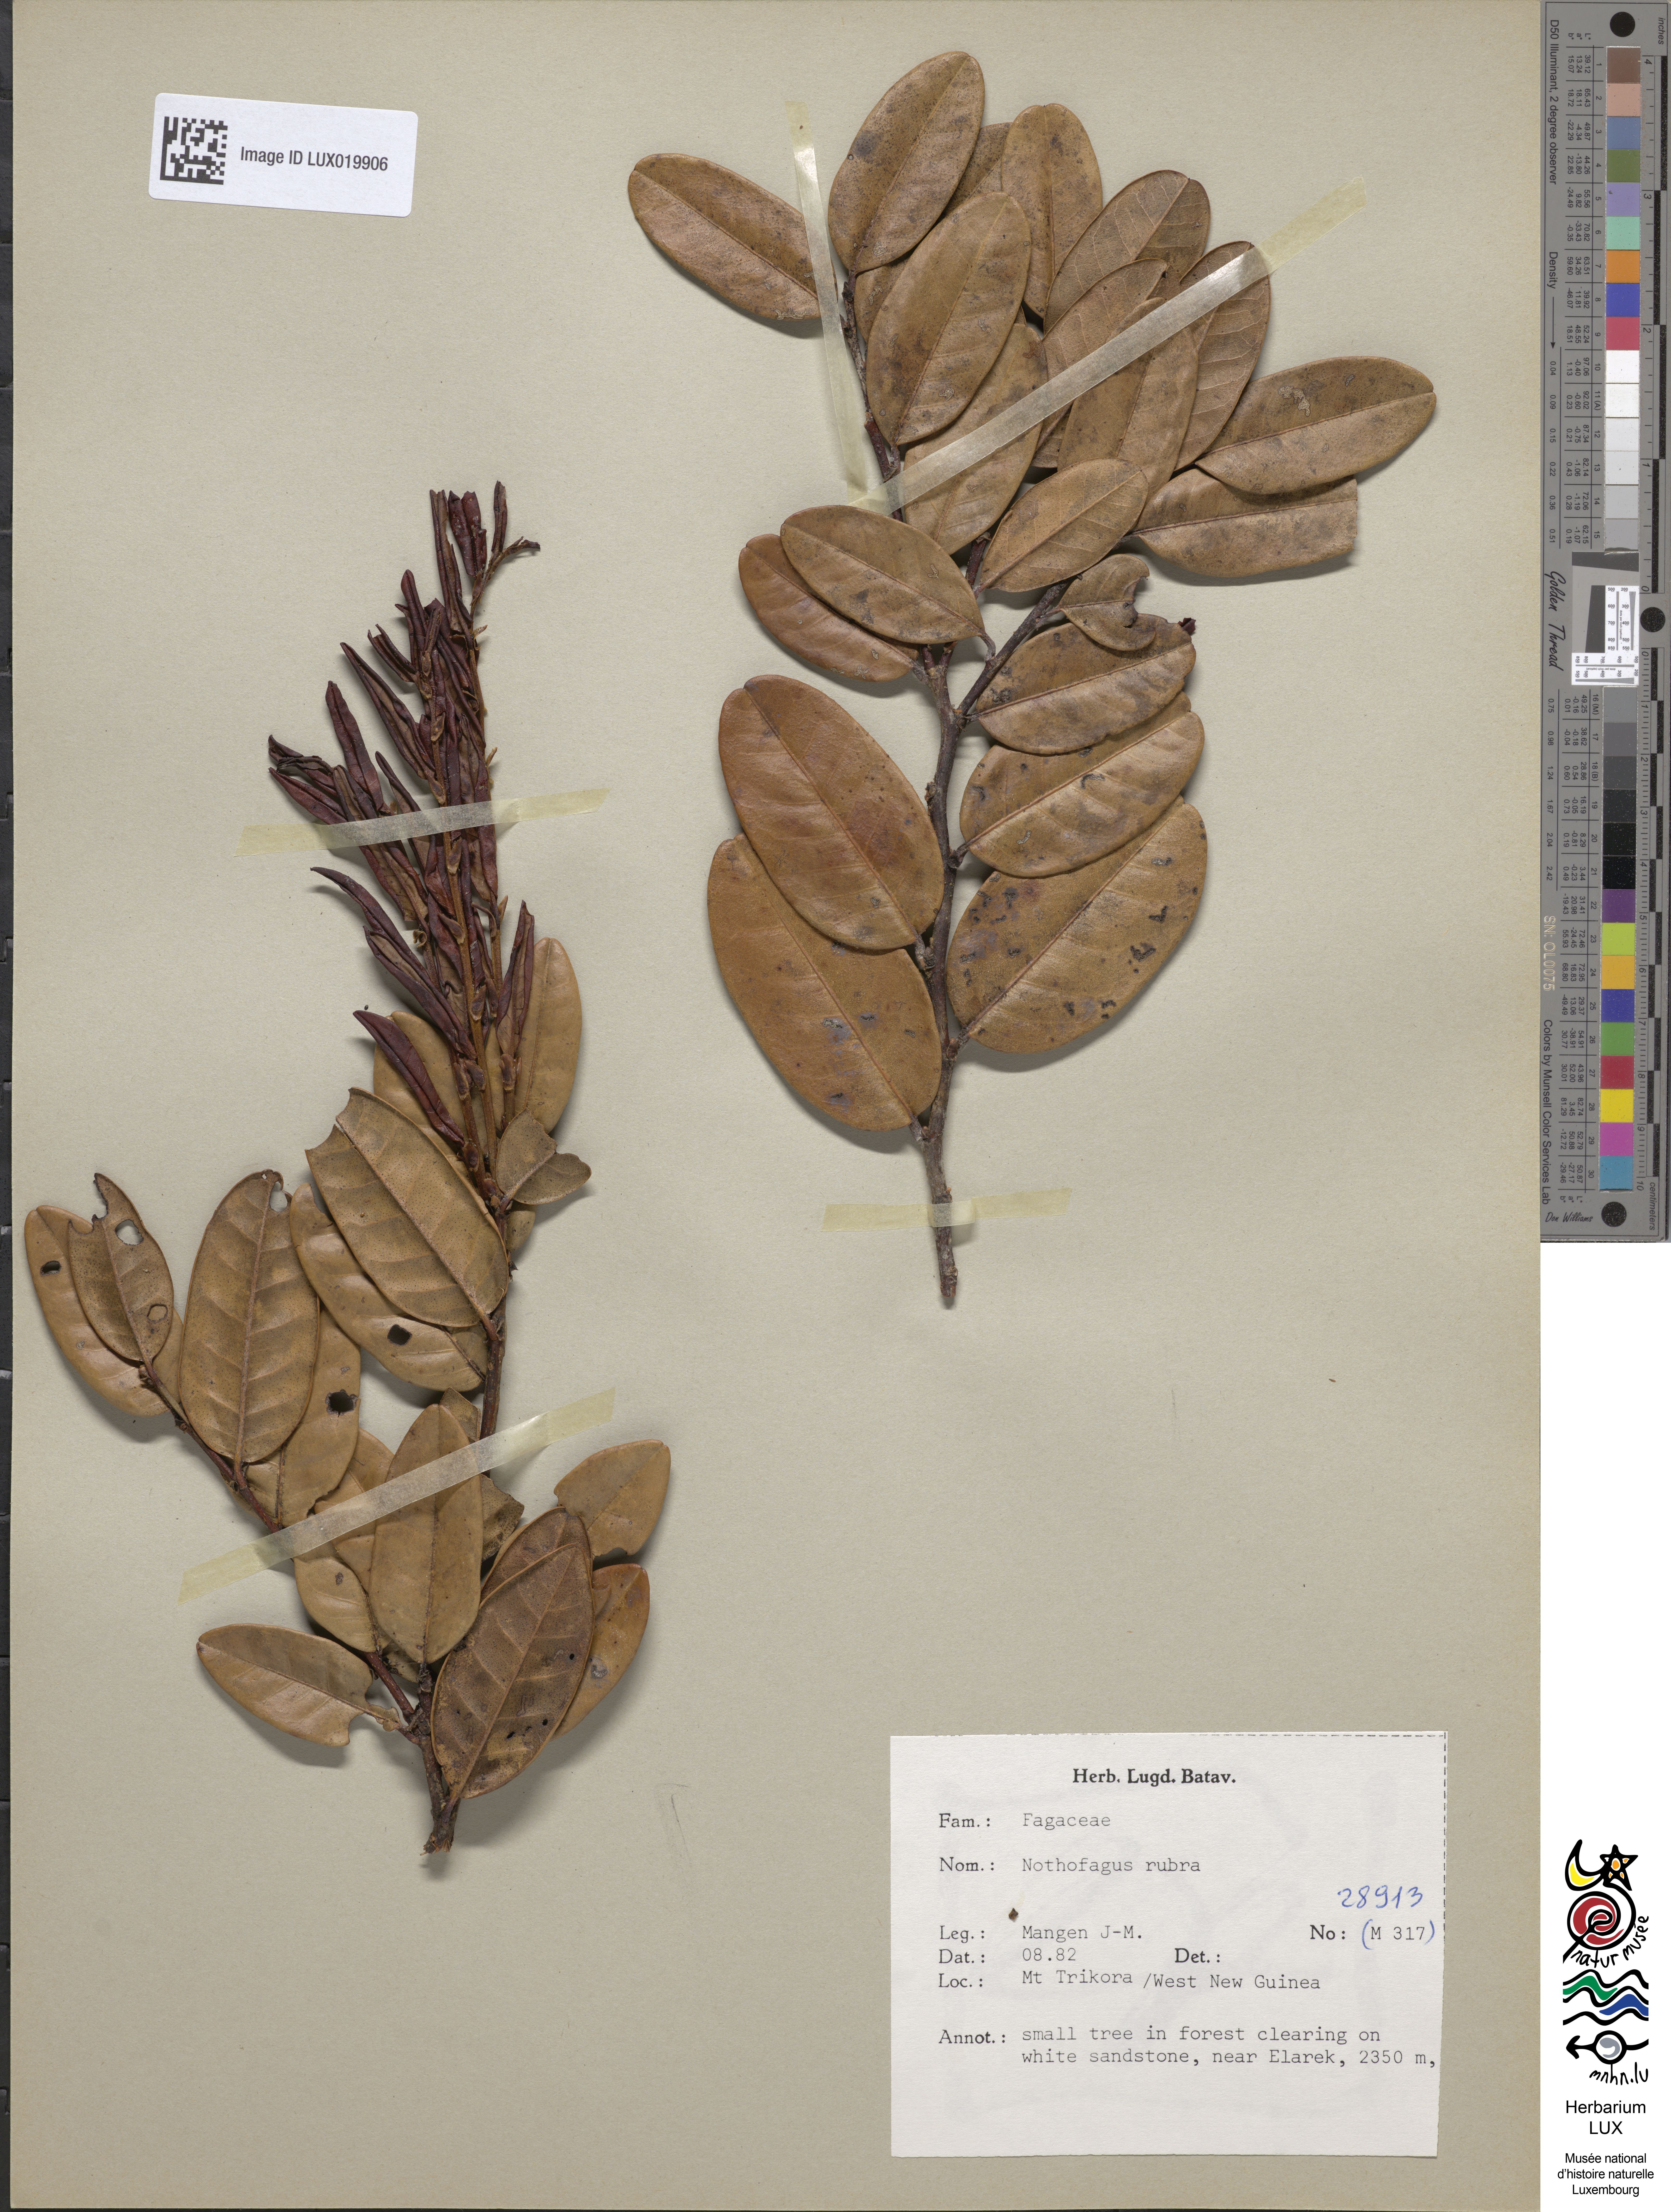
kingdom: Plantae
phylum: Tracheophyta
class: Magnoliopsida
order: Fagales
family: Nothofagaceae
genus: Nothofagus
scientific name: Nothofagus rubra
